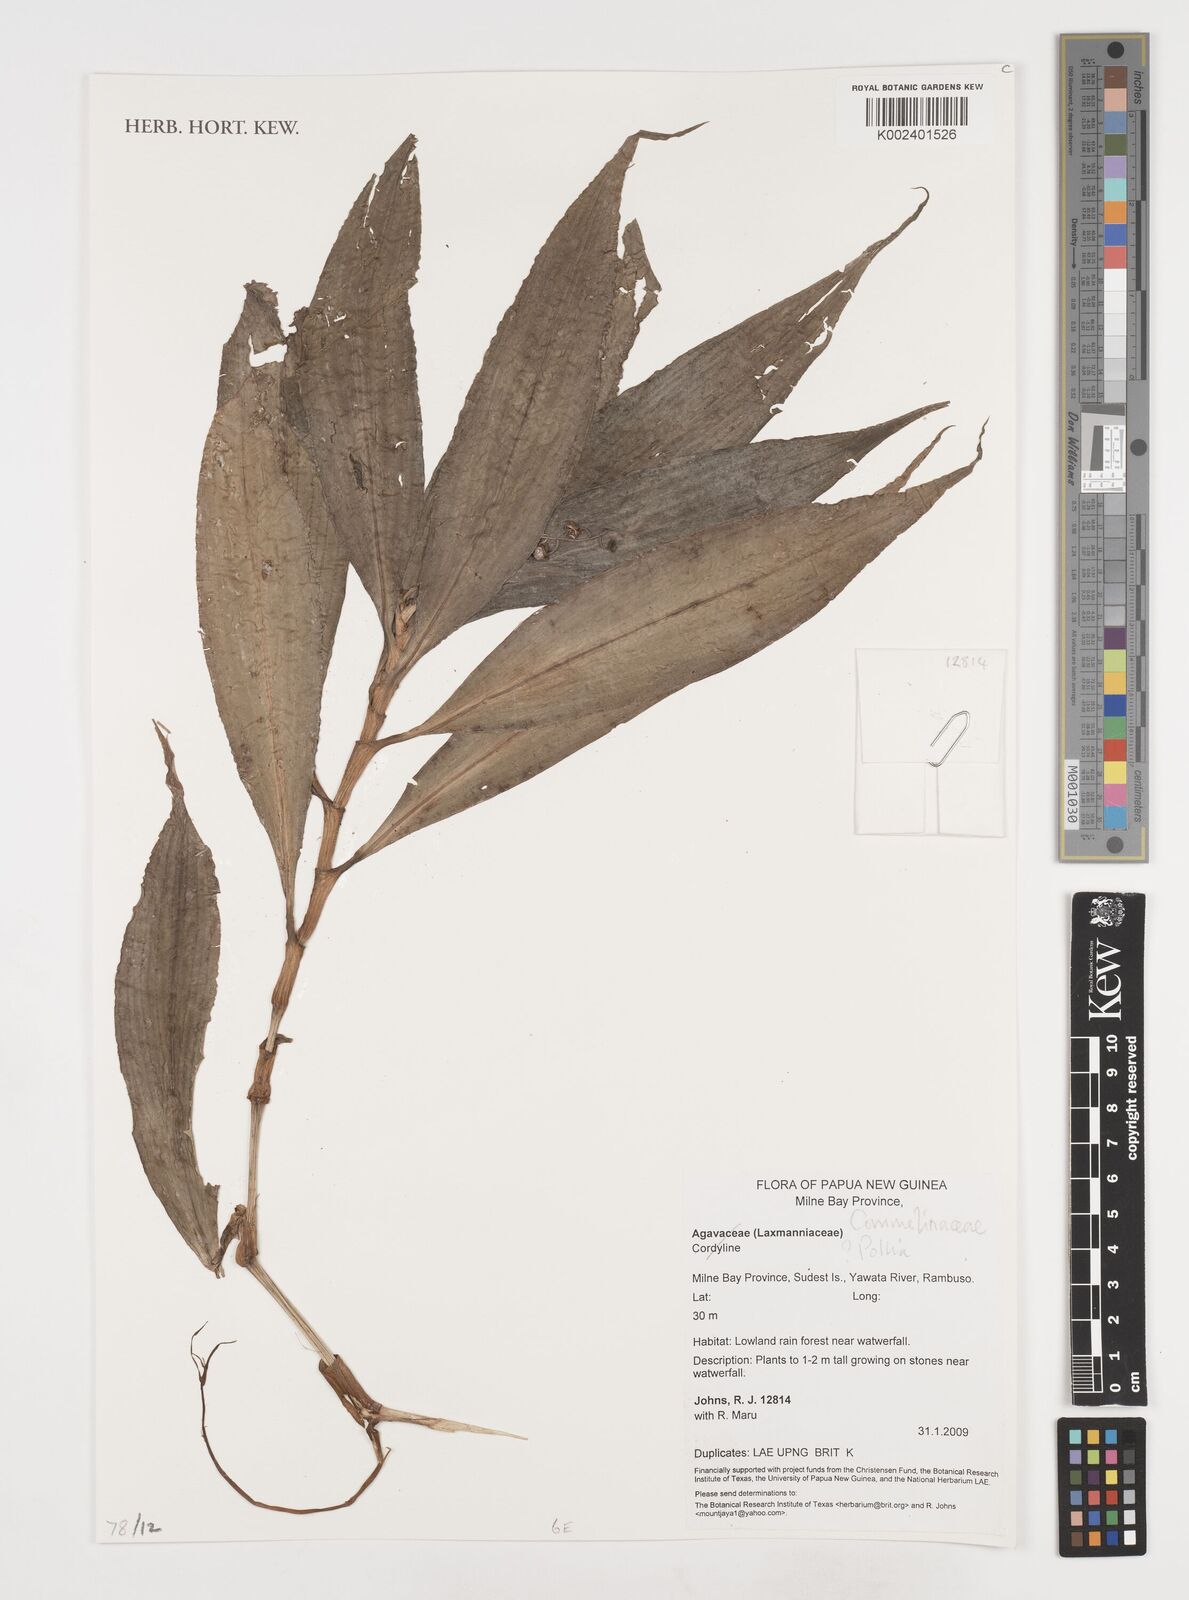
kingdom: Plantae
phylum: Tracheophyta
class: Liliopsida
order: Commelinales
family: Commelinaceae
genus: Pollia
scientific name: Pollia
